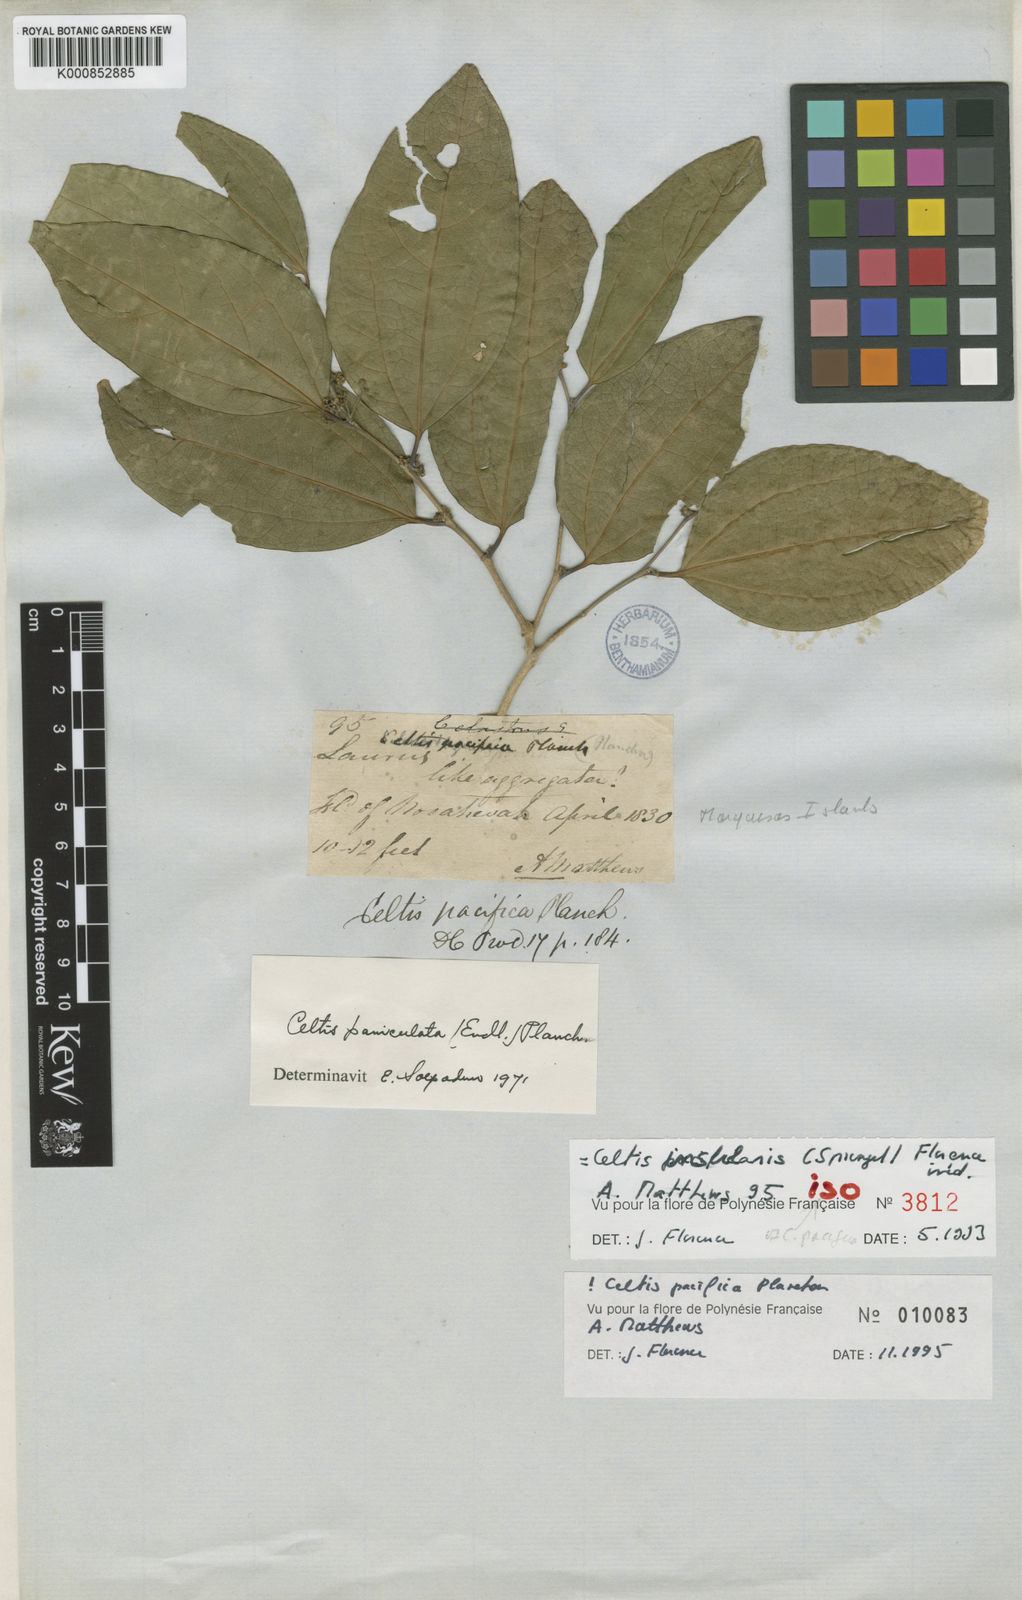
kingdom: Plantae
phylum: Tracheophyta
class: Magnoliopsida
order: Rosales
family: Cannabaceae
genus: Celtis
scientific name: Celtis pacifica
